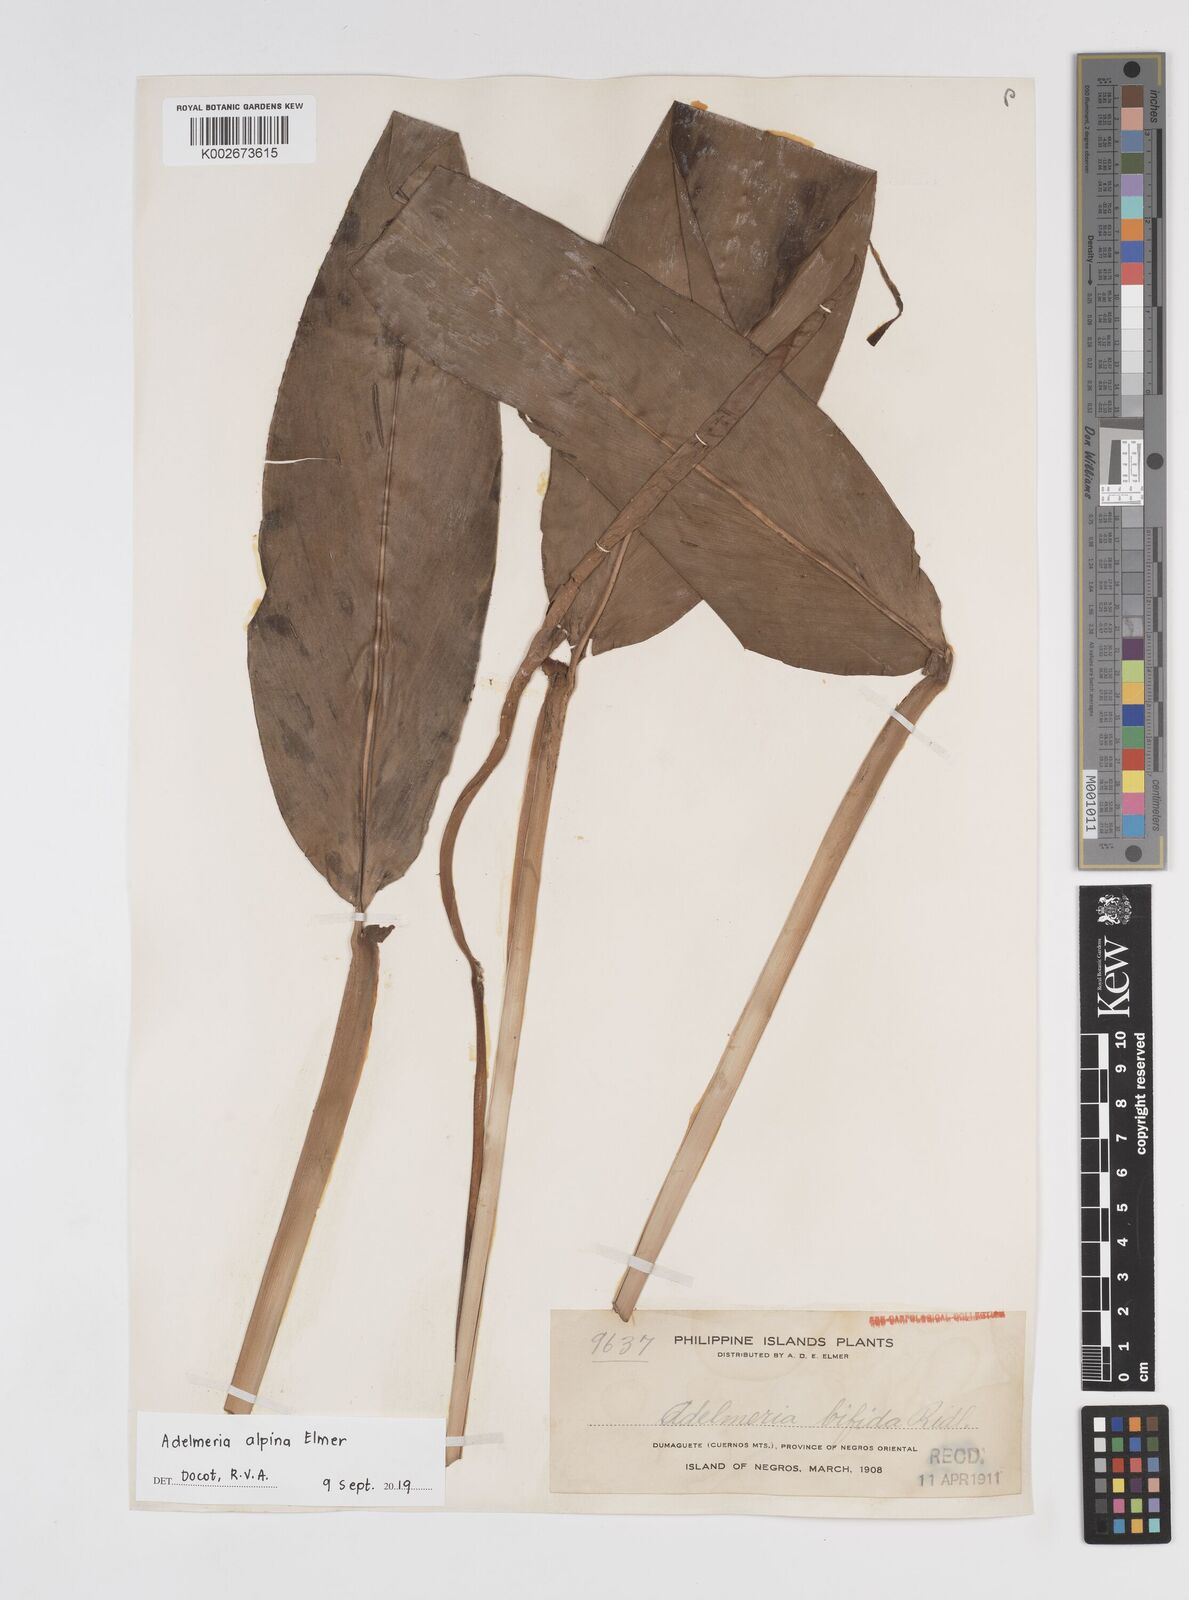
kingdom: Plantae
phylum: Tracheophyta
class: Liliopsida
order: Zingiberales
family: Zingiberaceae
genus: Adelmeria
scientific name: Adelmeria paradoxa
